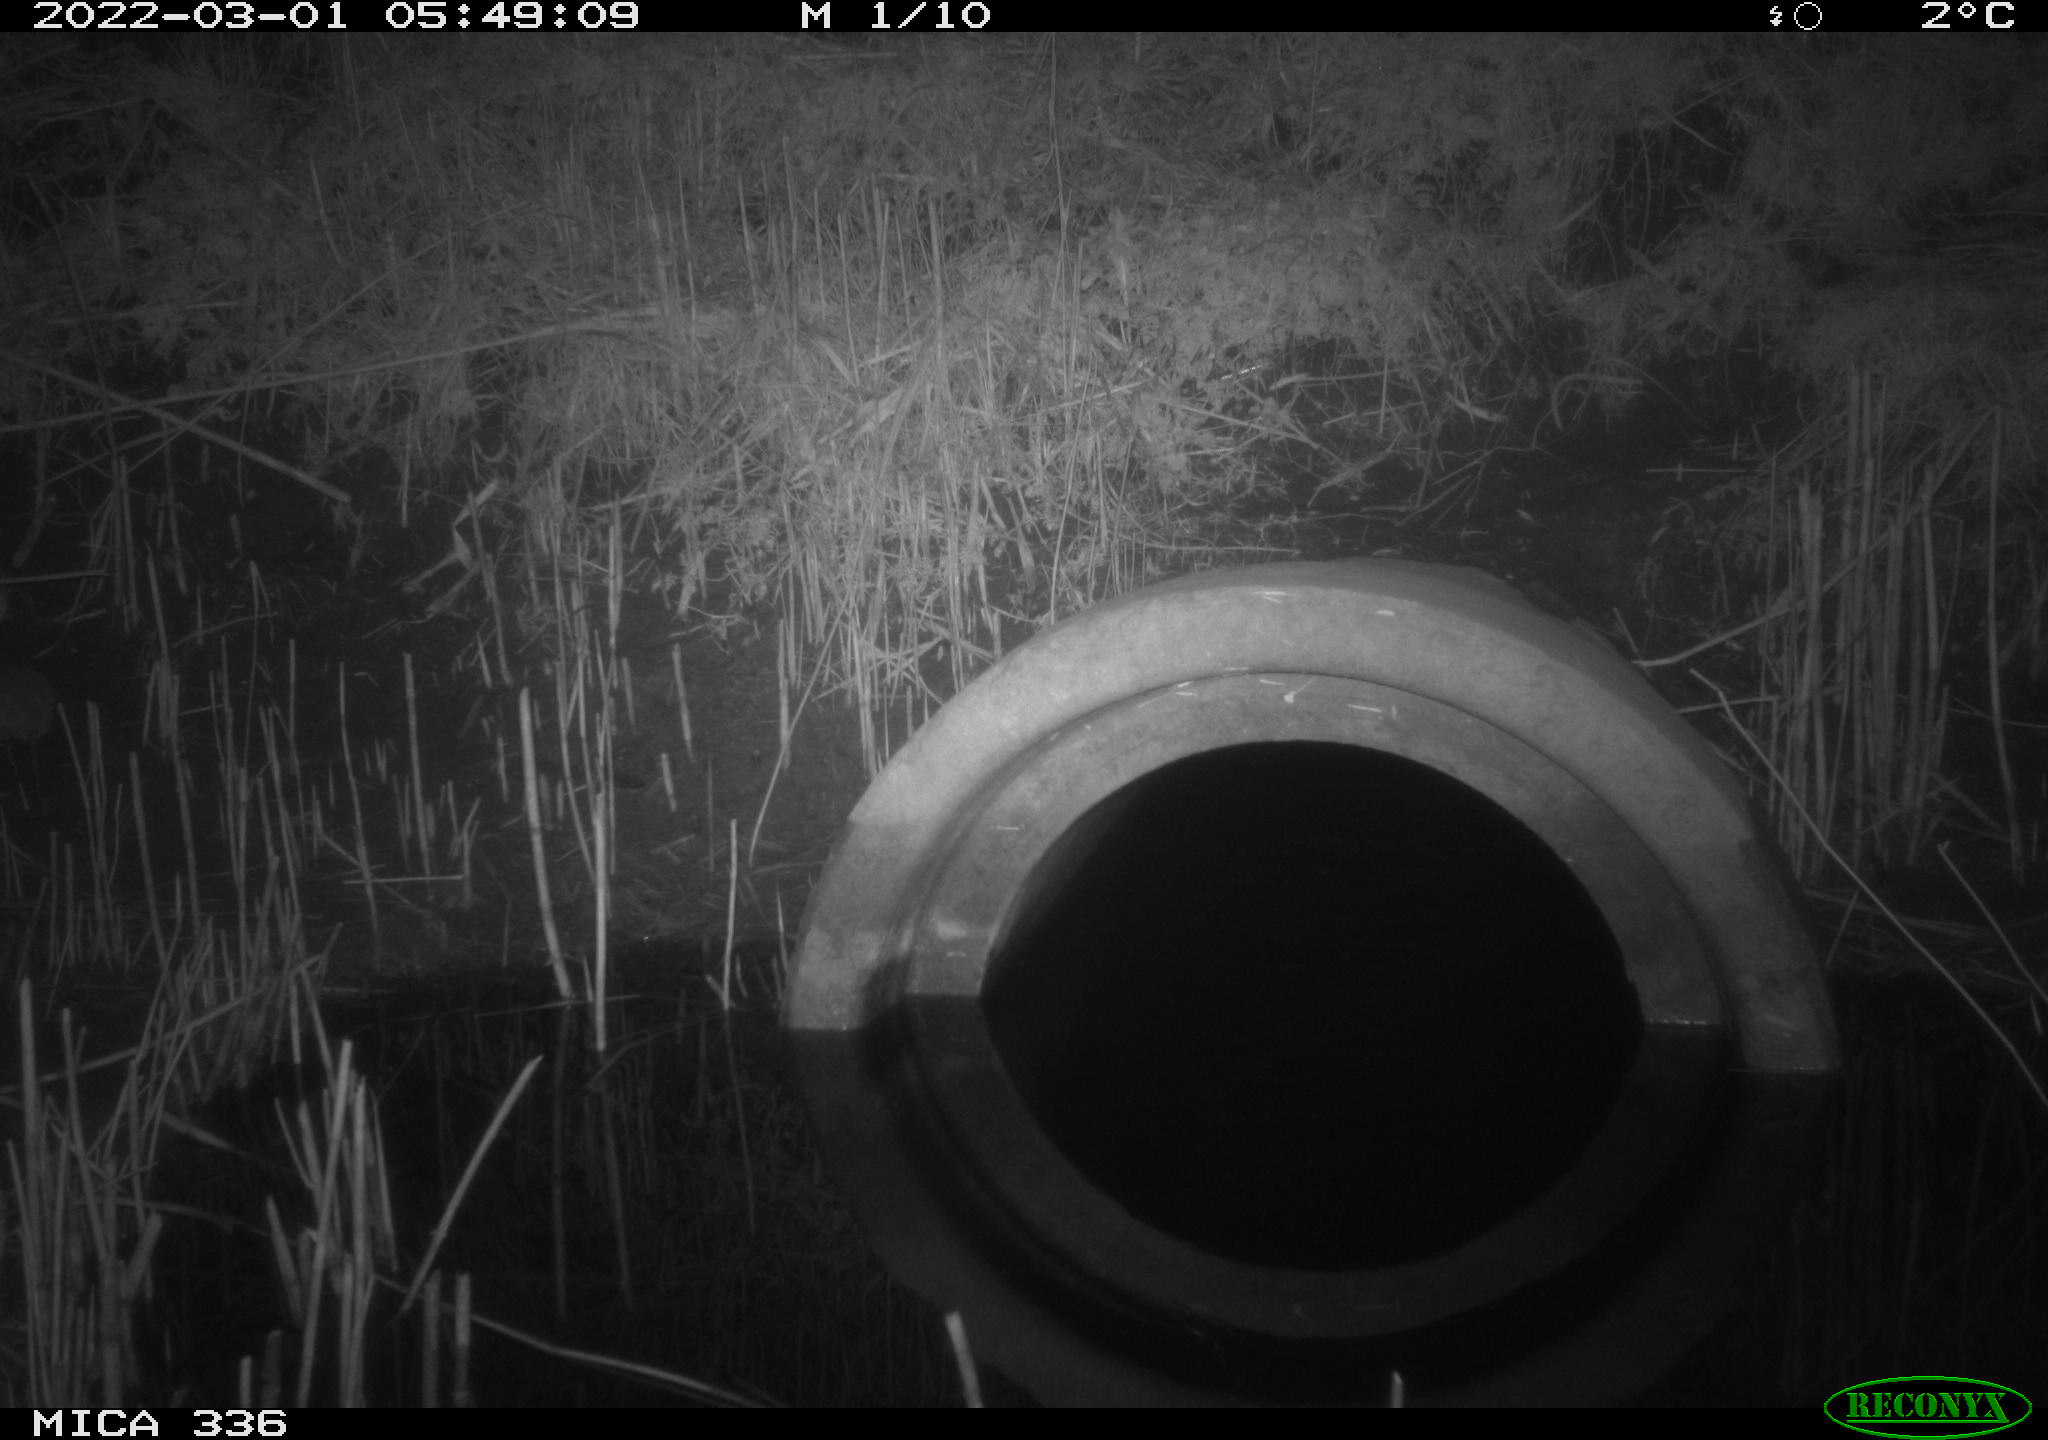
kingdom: Animalia
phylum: Chordata
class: Mammalia
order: Rodentia
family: Muridae
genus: Rattus
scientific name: Rattus norvegicus
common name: Brown rat
